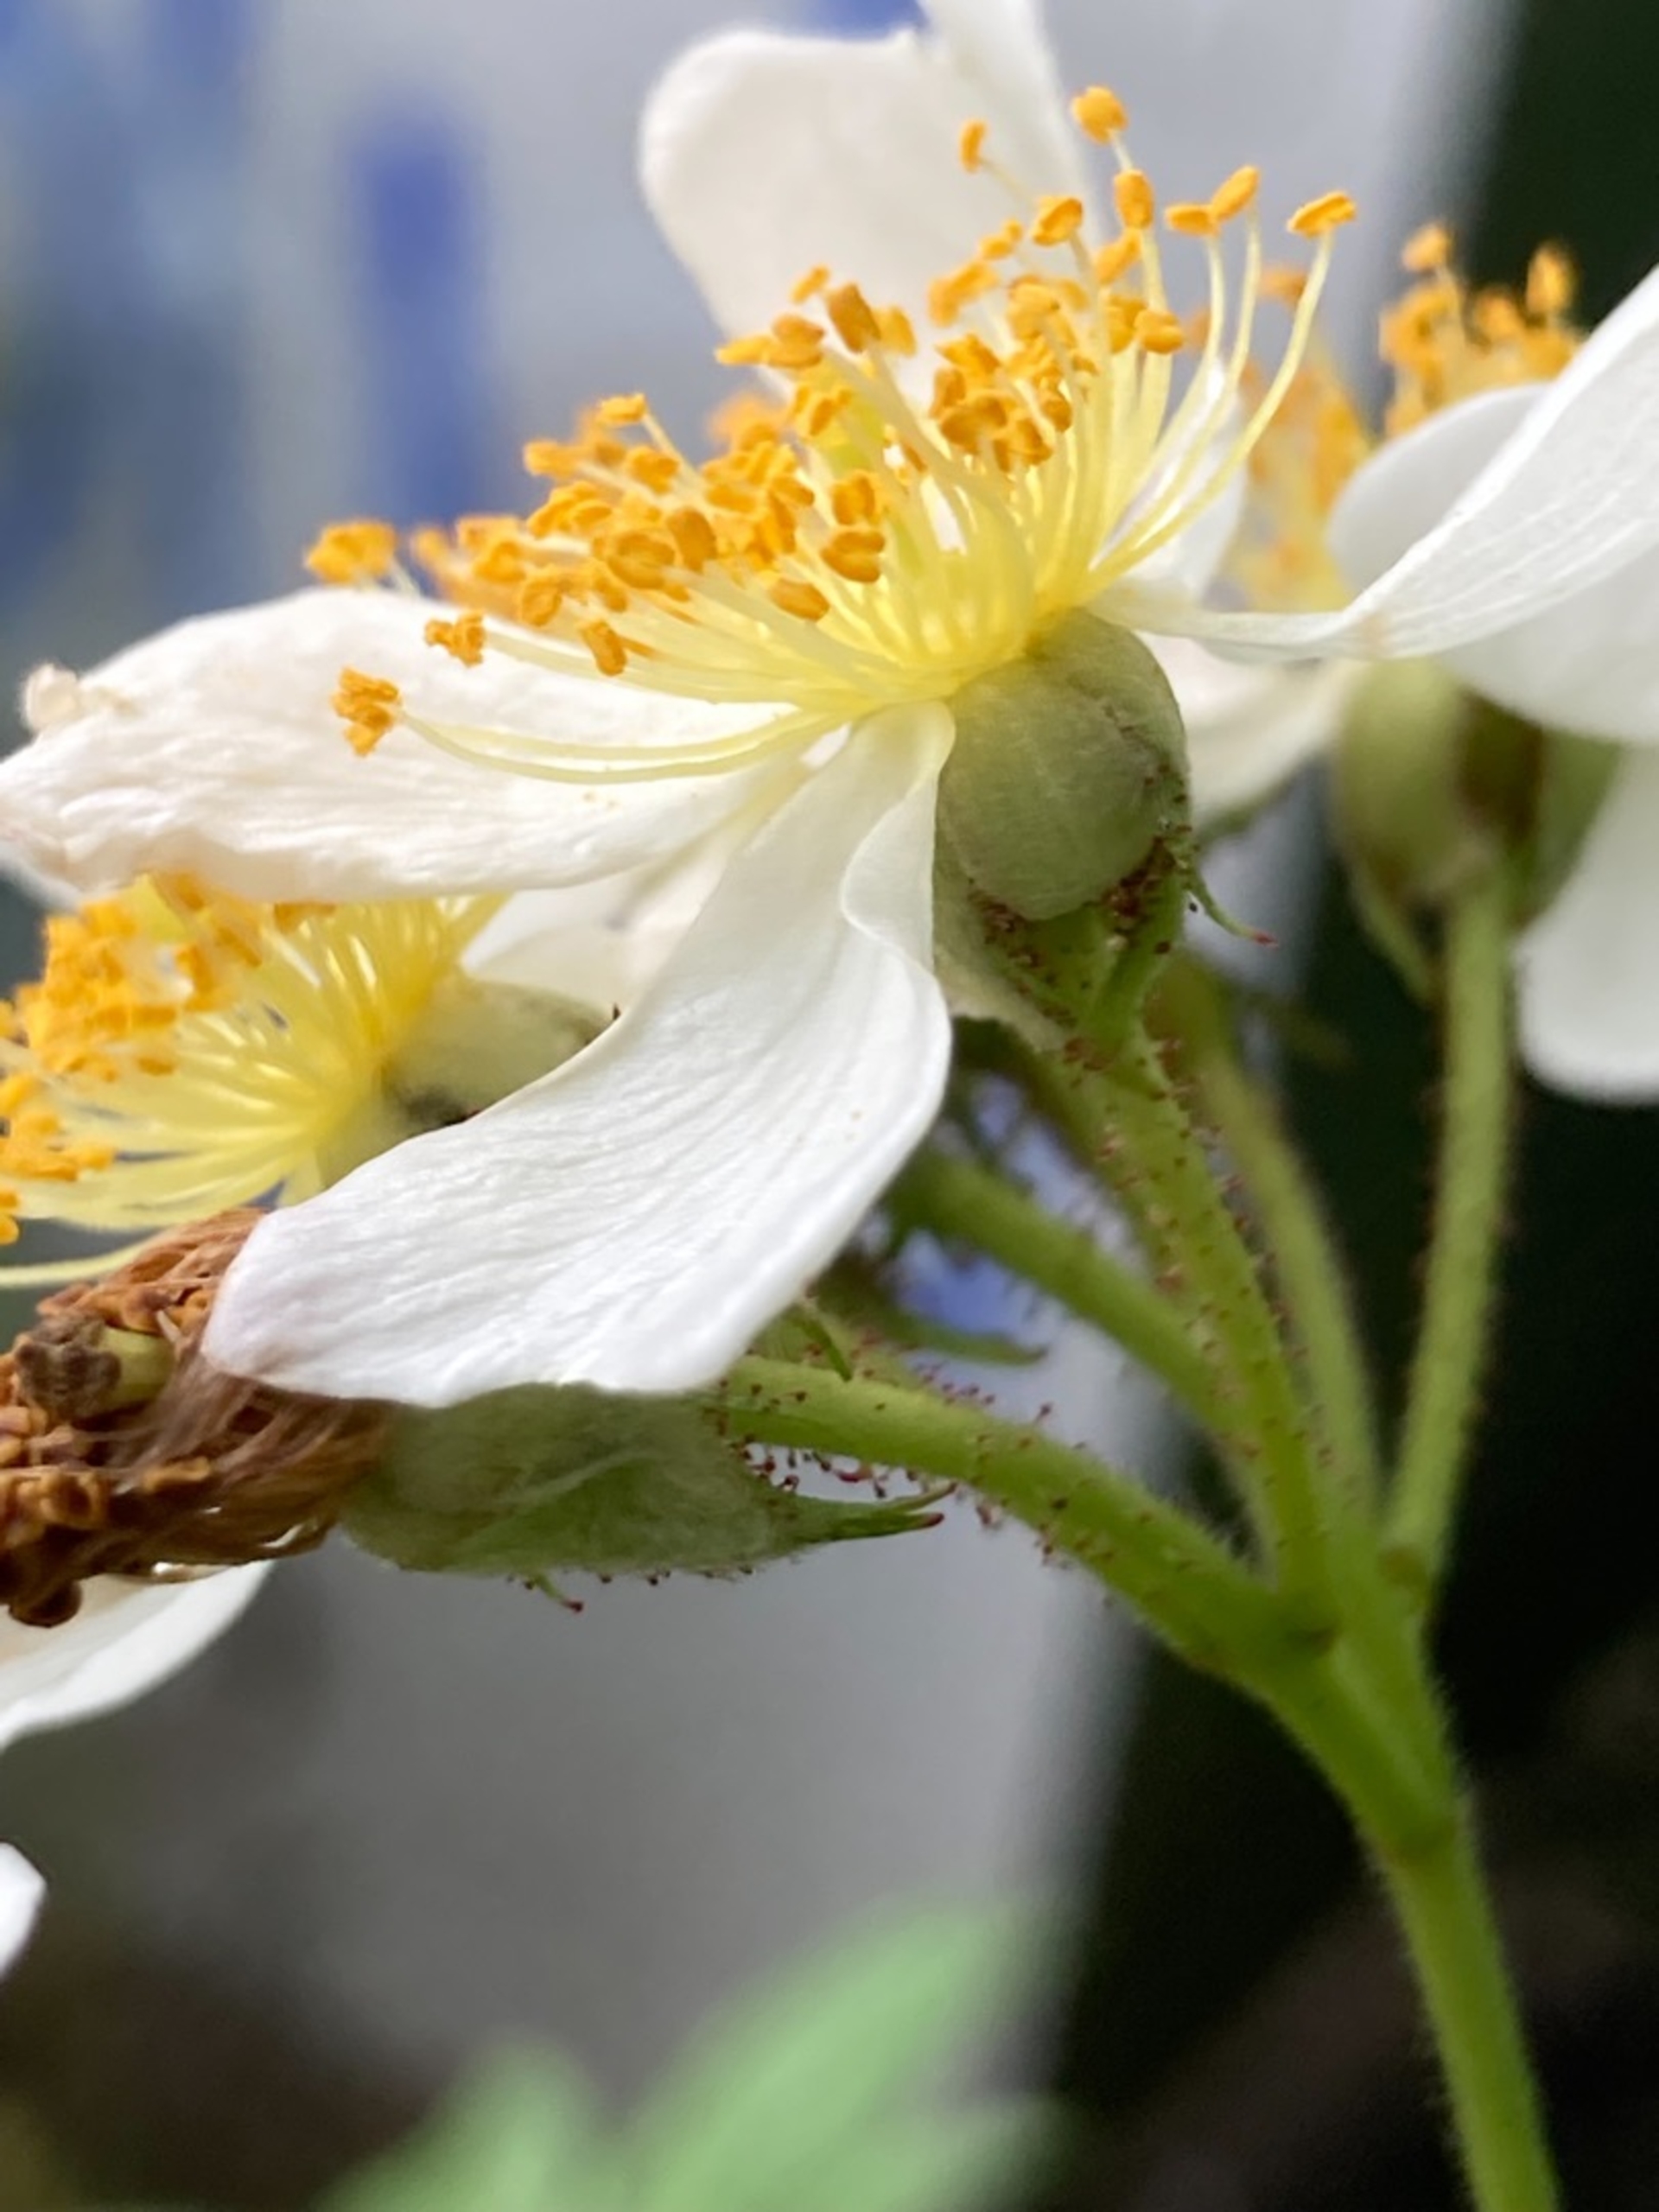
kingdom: Plantae
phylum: Tracheophyta
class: Magnoliopsida
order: Rosales
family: Rosaceae
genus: Rosa
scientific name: Rosa multiflora
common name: Mangeblomstret rose
